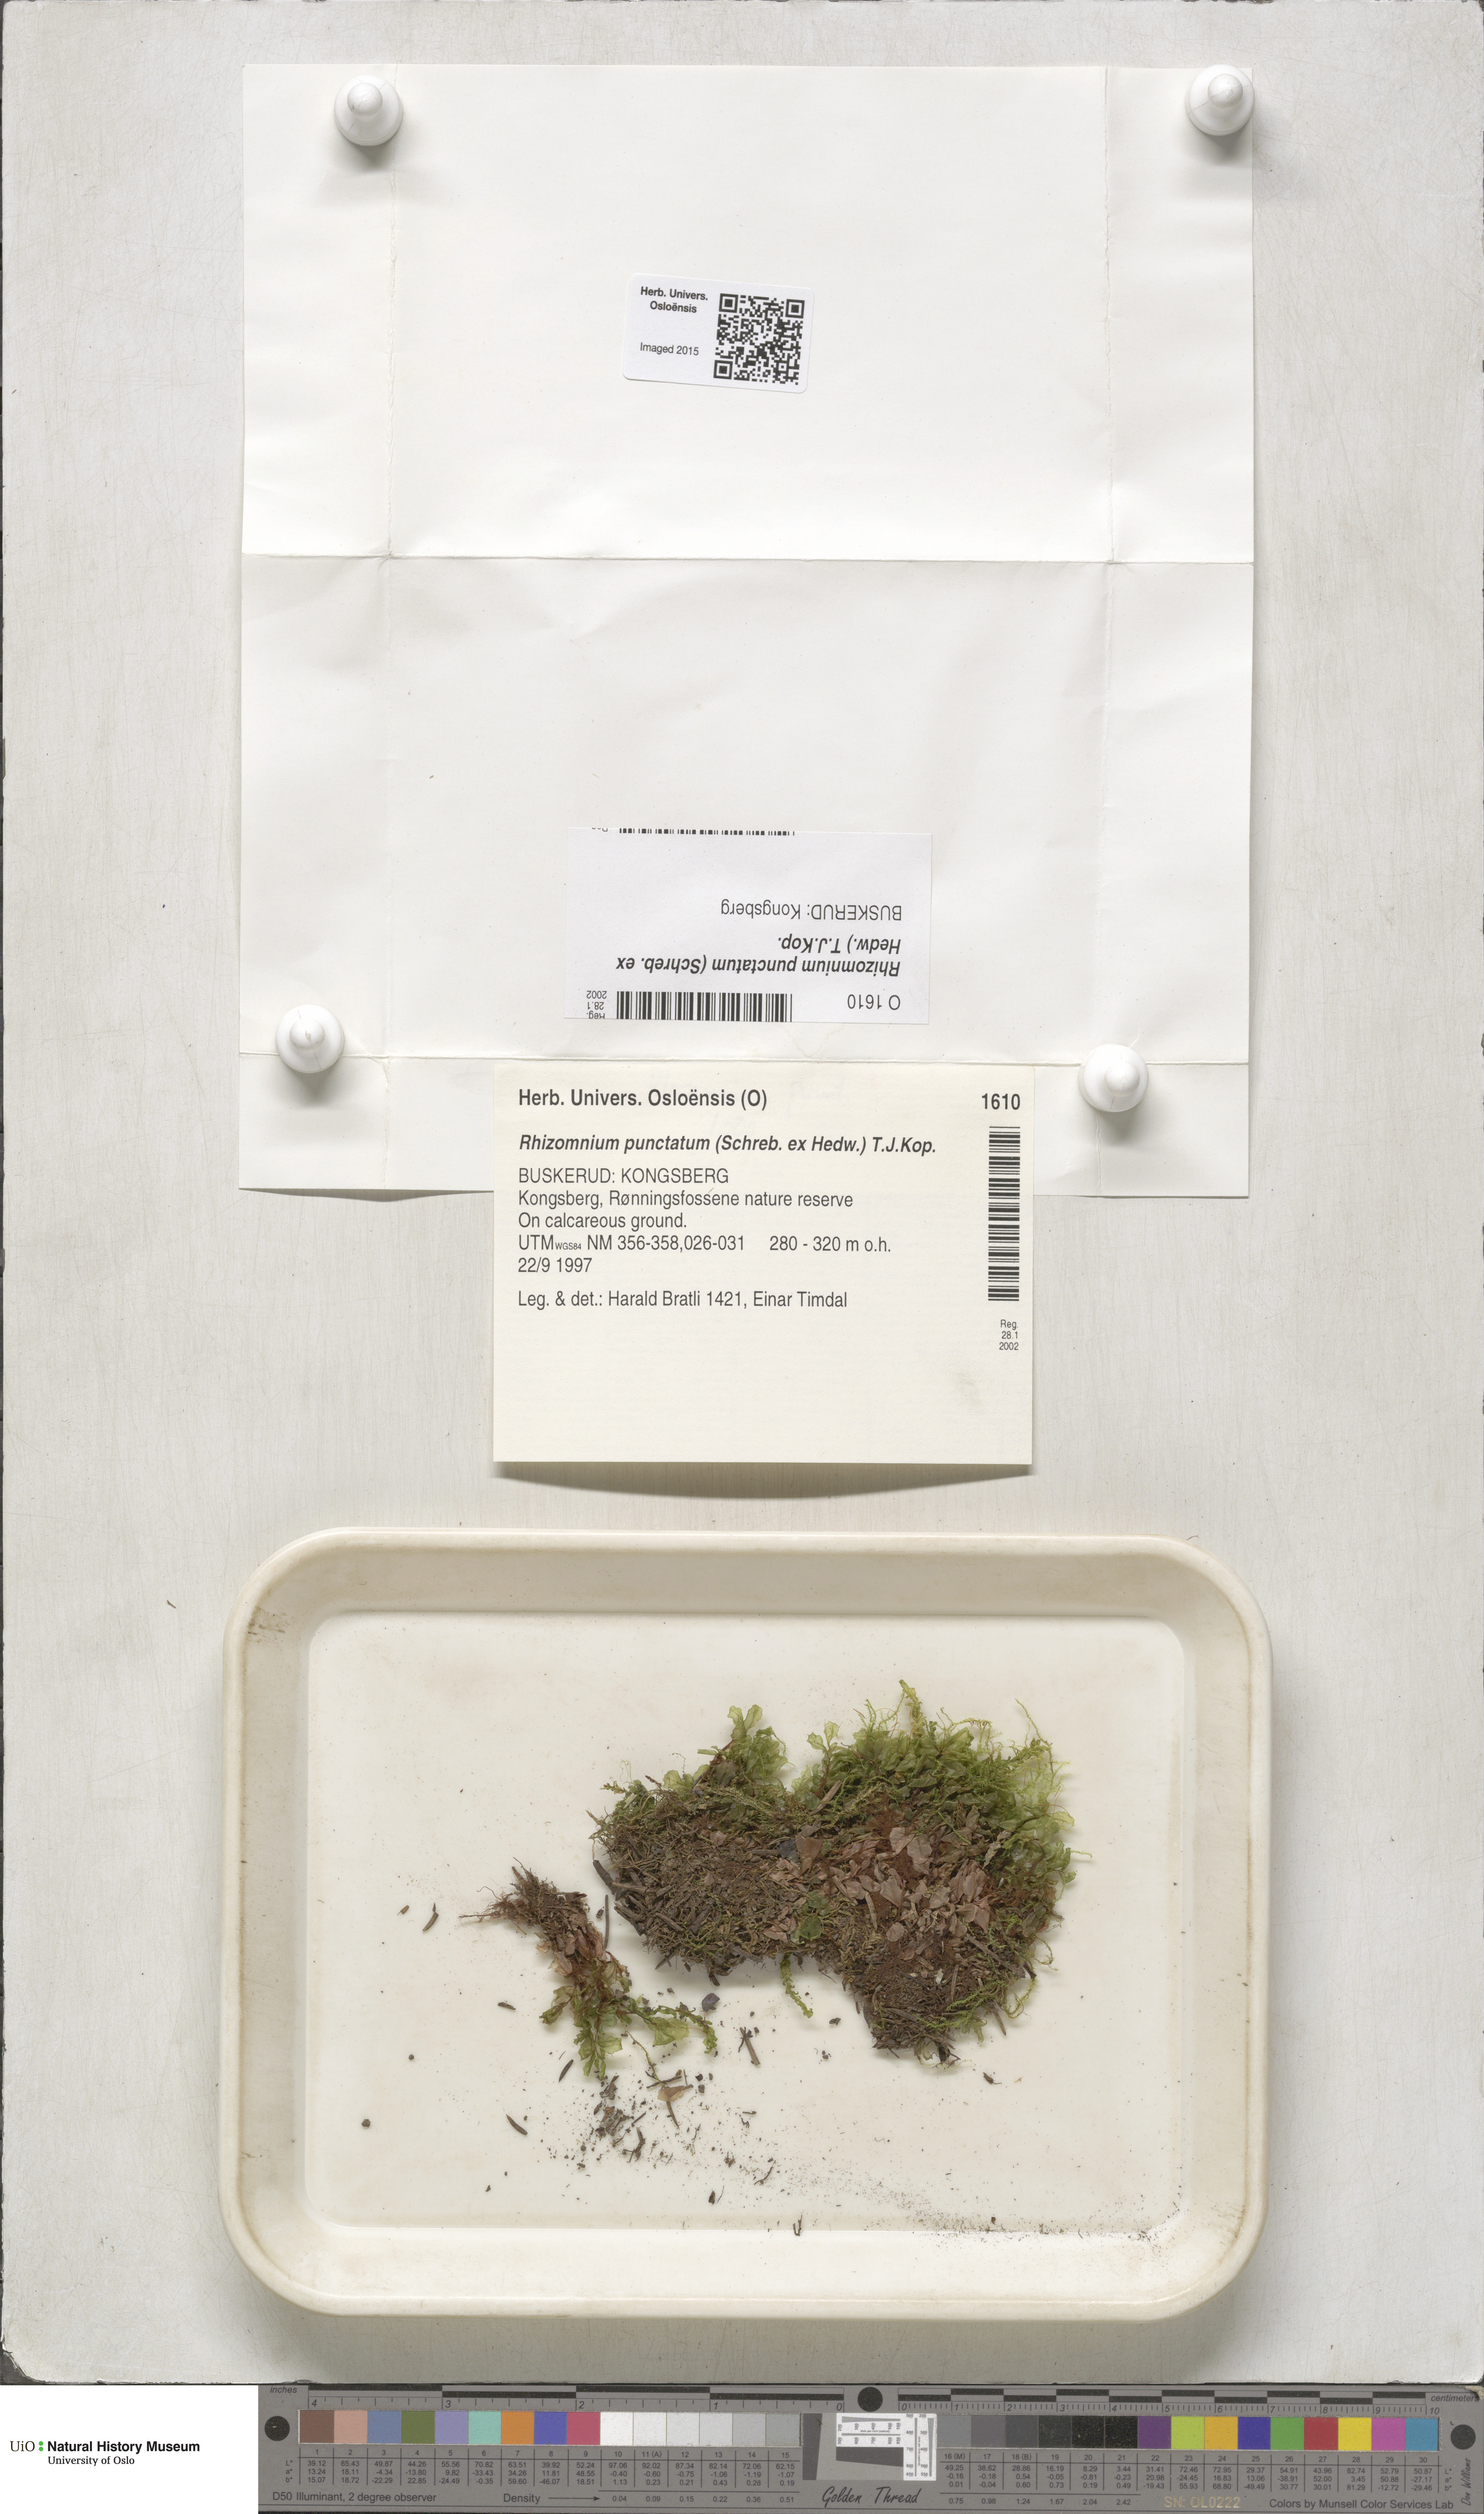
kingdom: Plantae
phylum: Bryophyta
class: Bryopsida
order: Bryales
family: Mniaceae
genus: Rhizomnium
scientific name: Rhizomnium punctatum
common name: Dotted leafy moss
